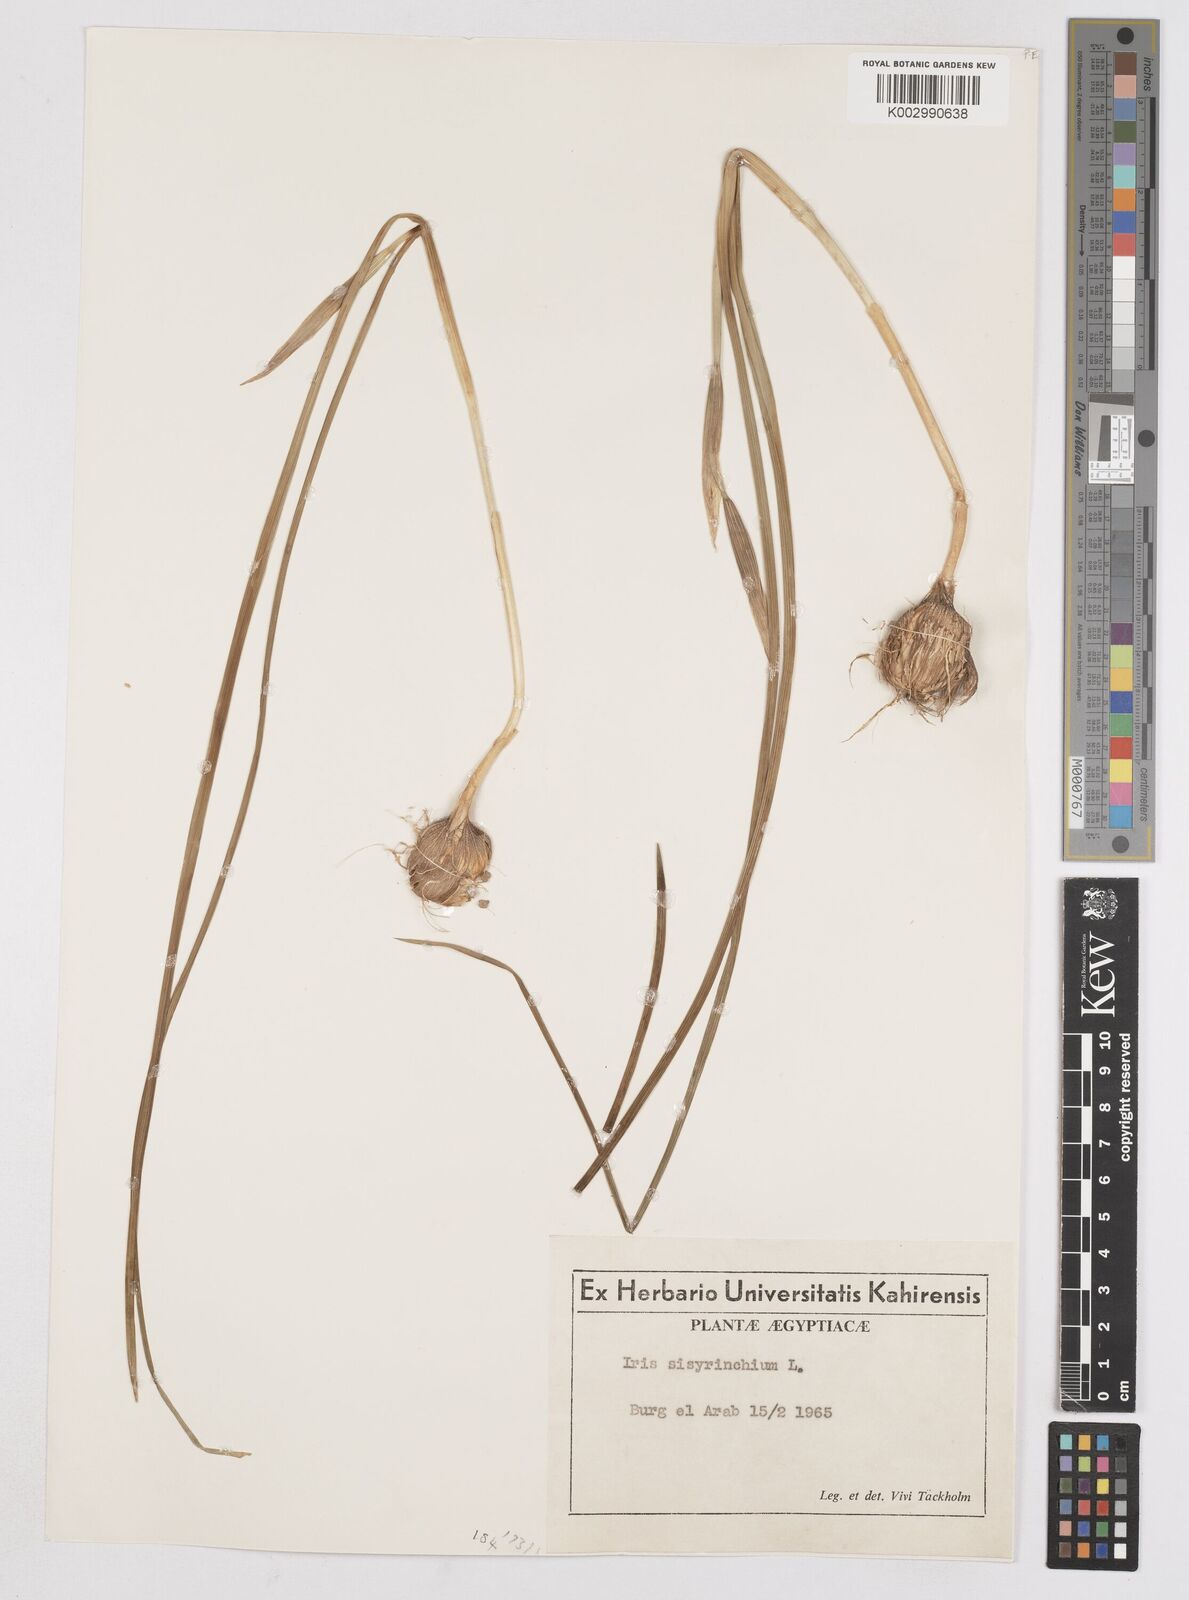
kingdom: Plantae
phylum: Tracheophyta
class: Liliopsida
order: Asparagales
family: Iridaceae
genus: Moraea
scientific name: Moraea sisyrinchium
